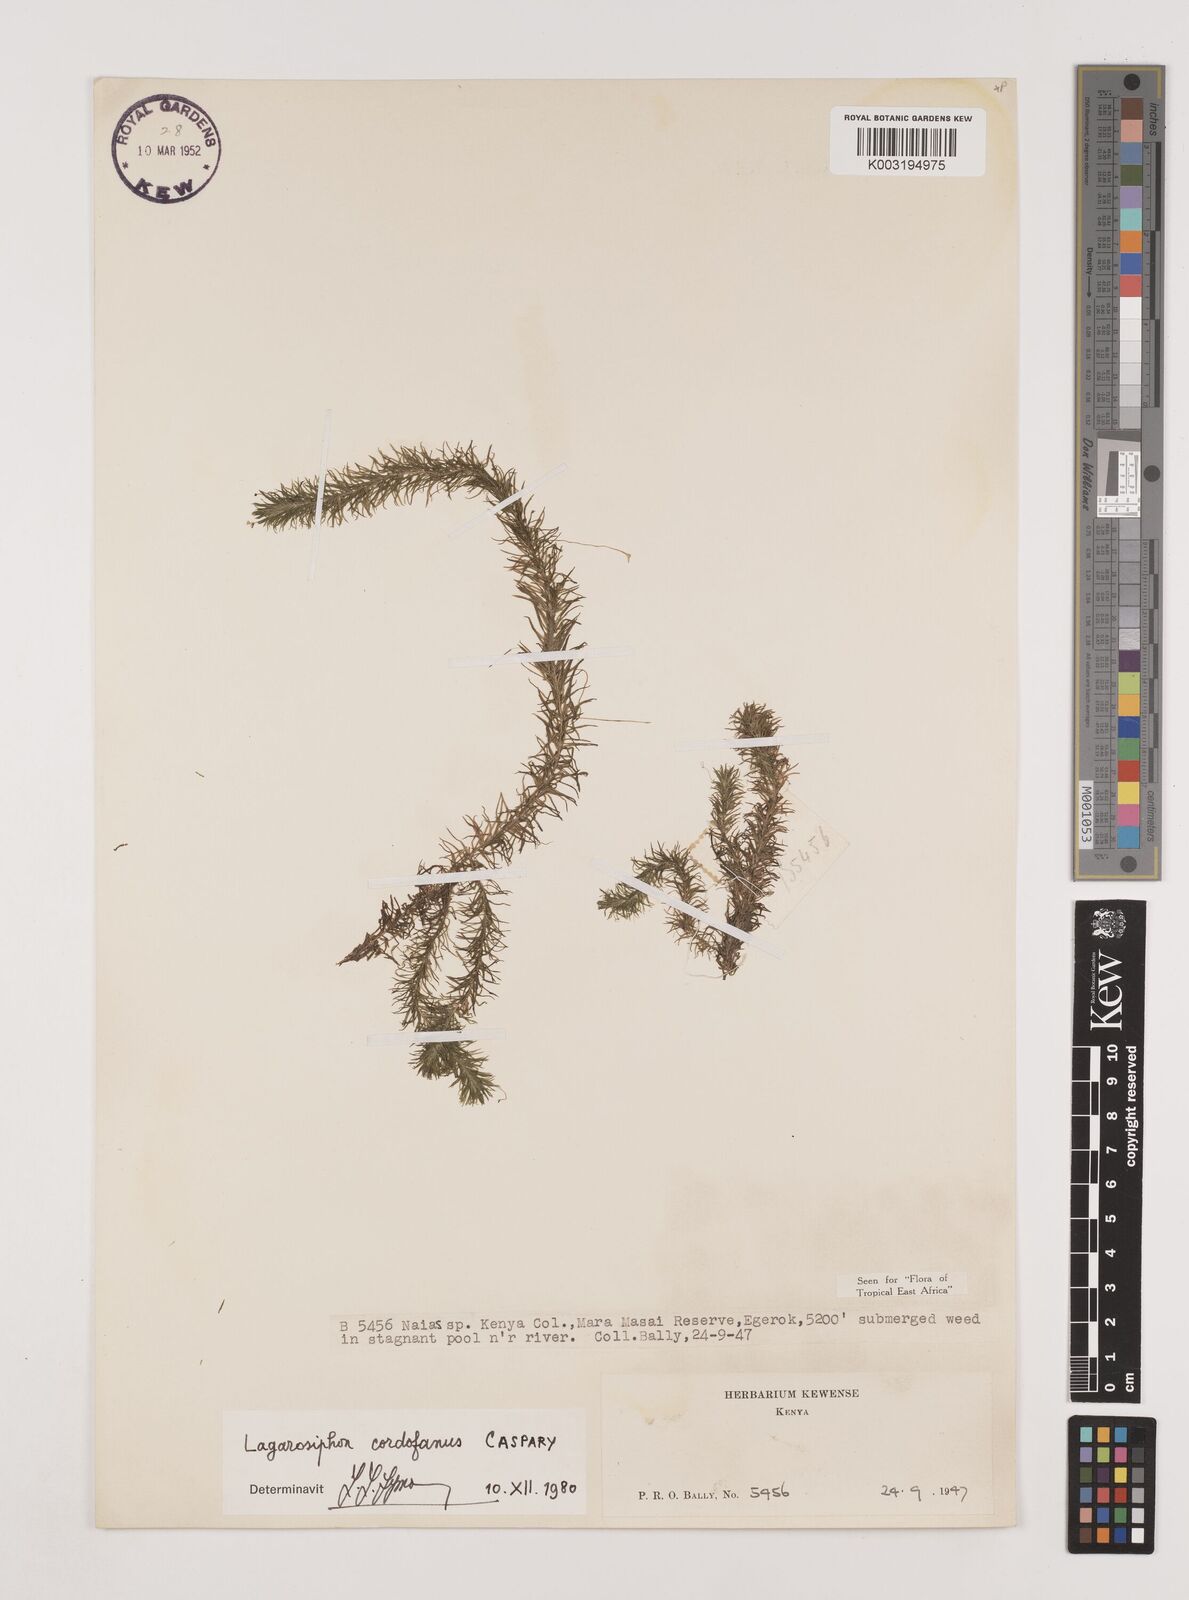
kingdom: Plantae
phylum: Tracheophyta
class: Liliopsida
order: Alismatales
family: Hydrocharitaceae
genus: Lagarosiphon
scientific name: Lagarosiphon cordofanus
